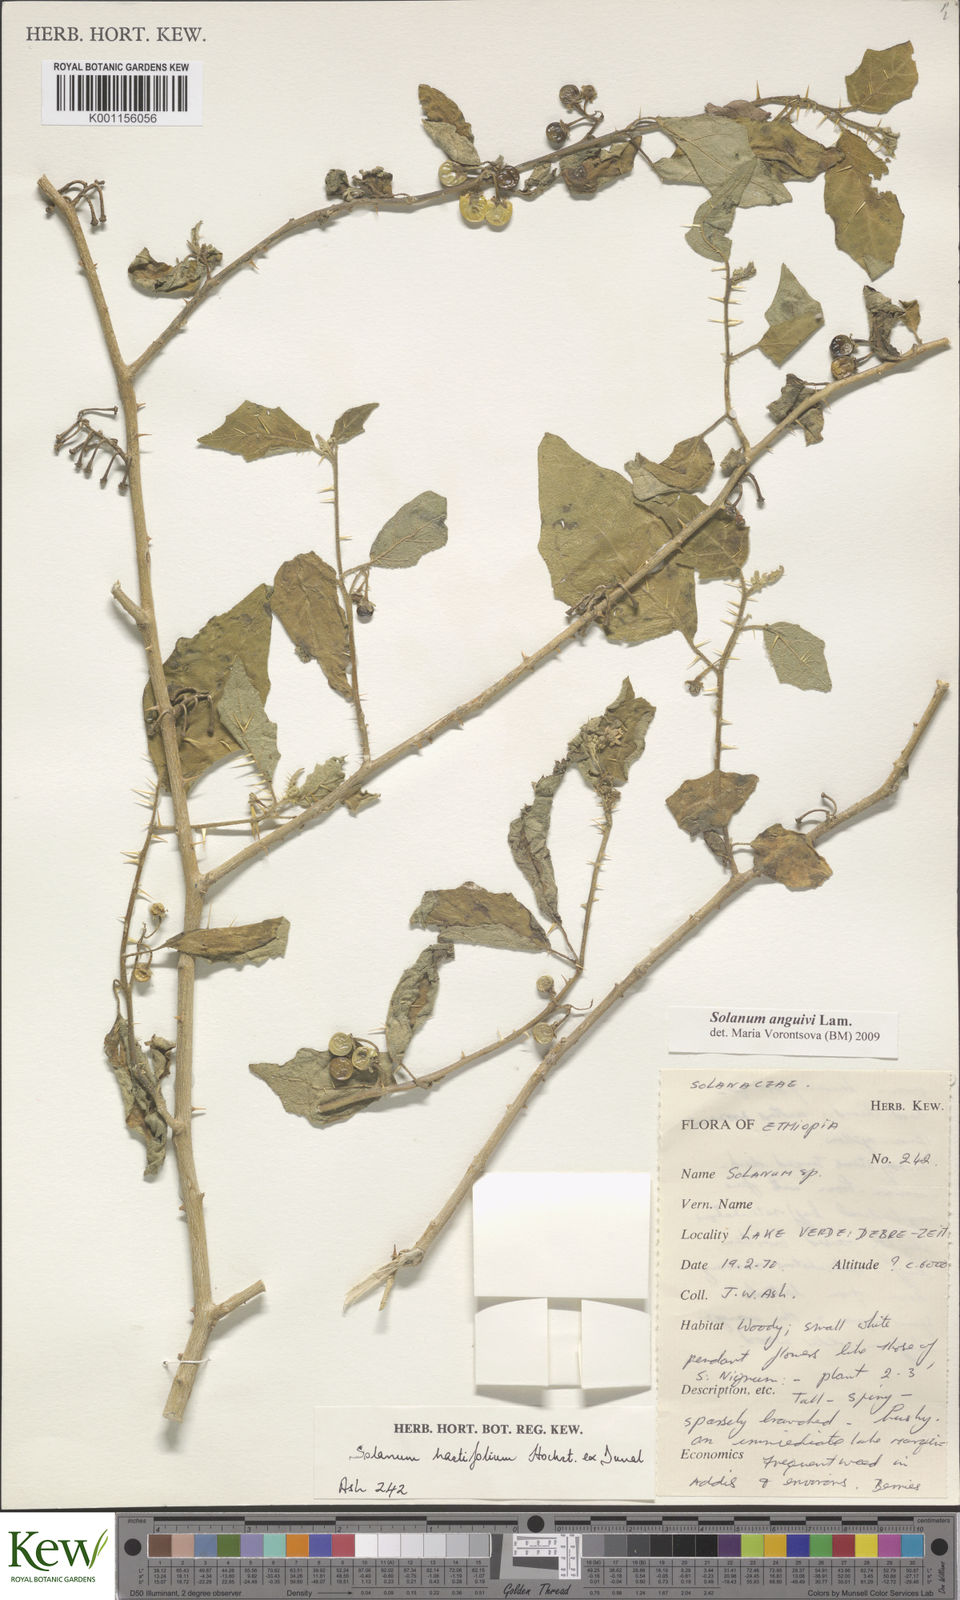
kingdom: Plantae
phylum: Tracheophyta
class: Magnoliopsida
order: Solanales
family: Solanaceae
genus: Solanum
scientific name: Solanum anguivi
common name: Forest bitterberry
